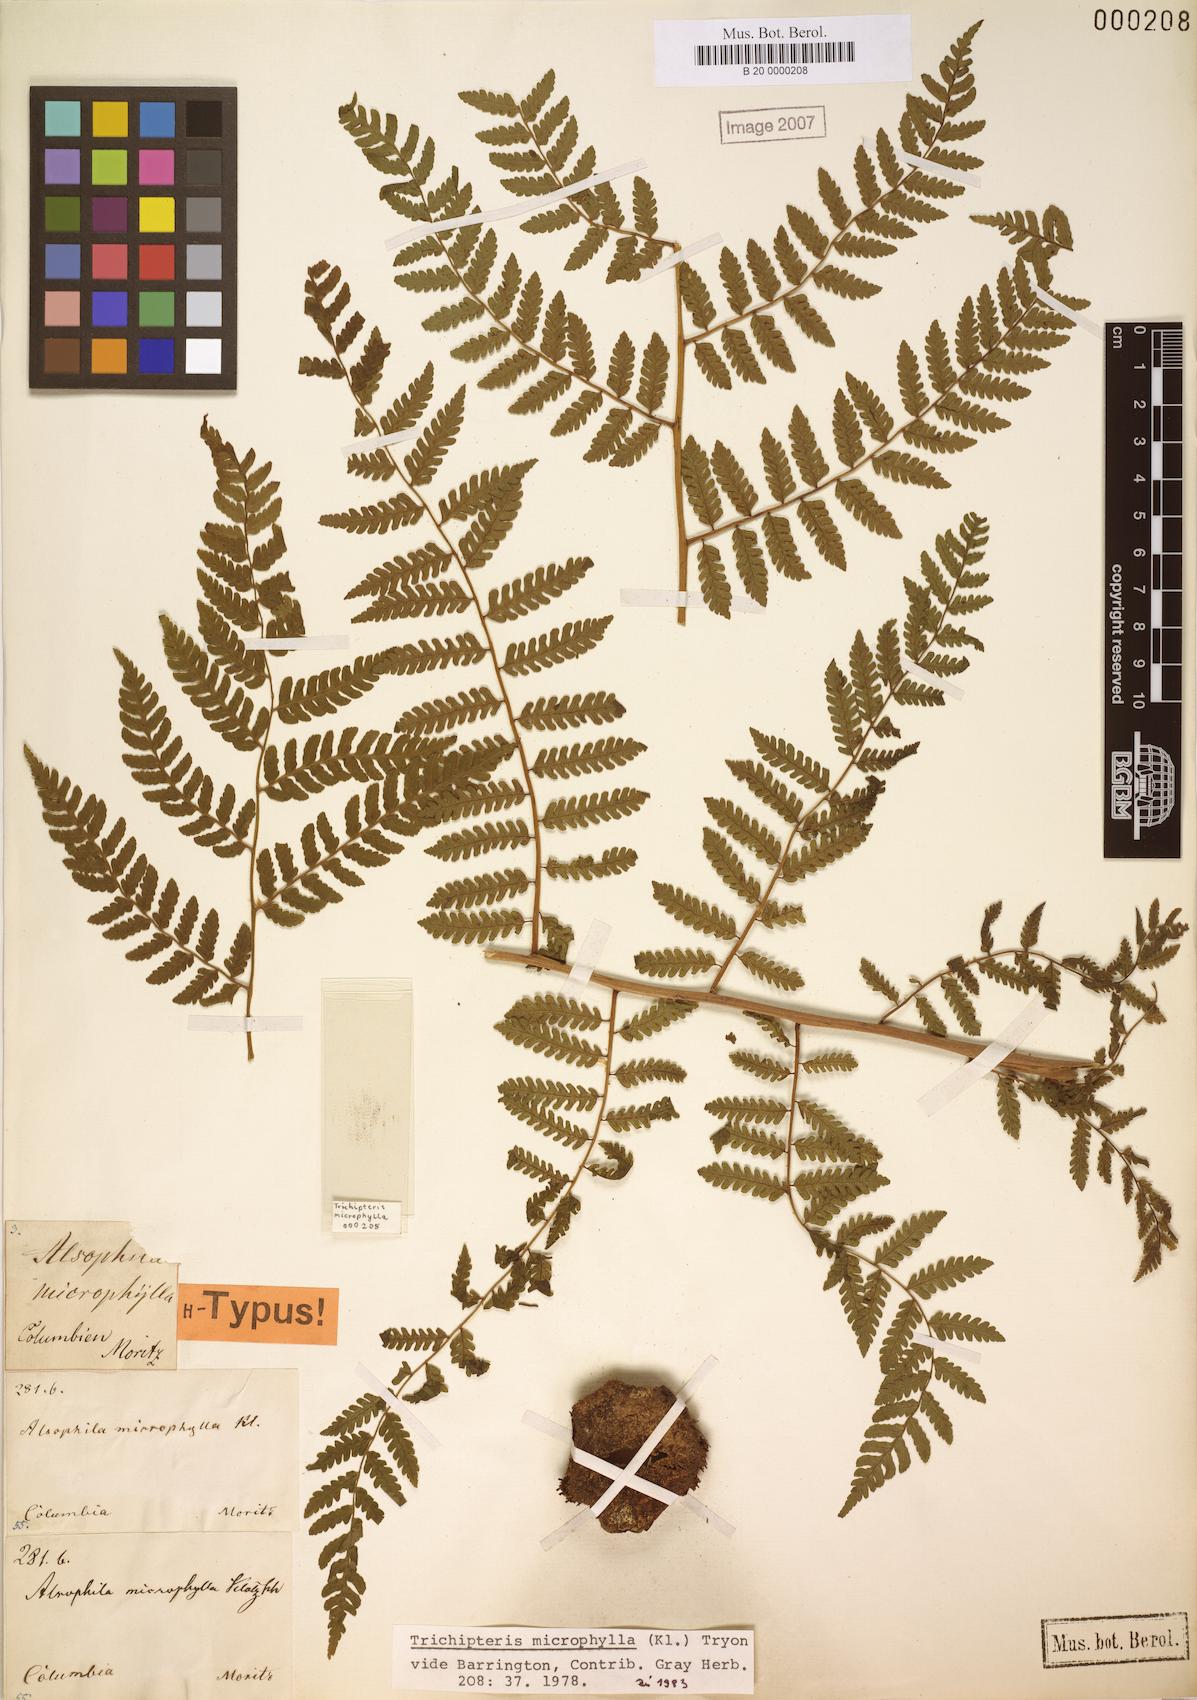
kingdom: Plantae
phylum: Tracheophyta
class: Polypodiopsida
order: Cyatheales
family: Cyatheaceae
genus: Cyathea
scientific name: Cyathea squamata
